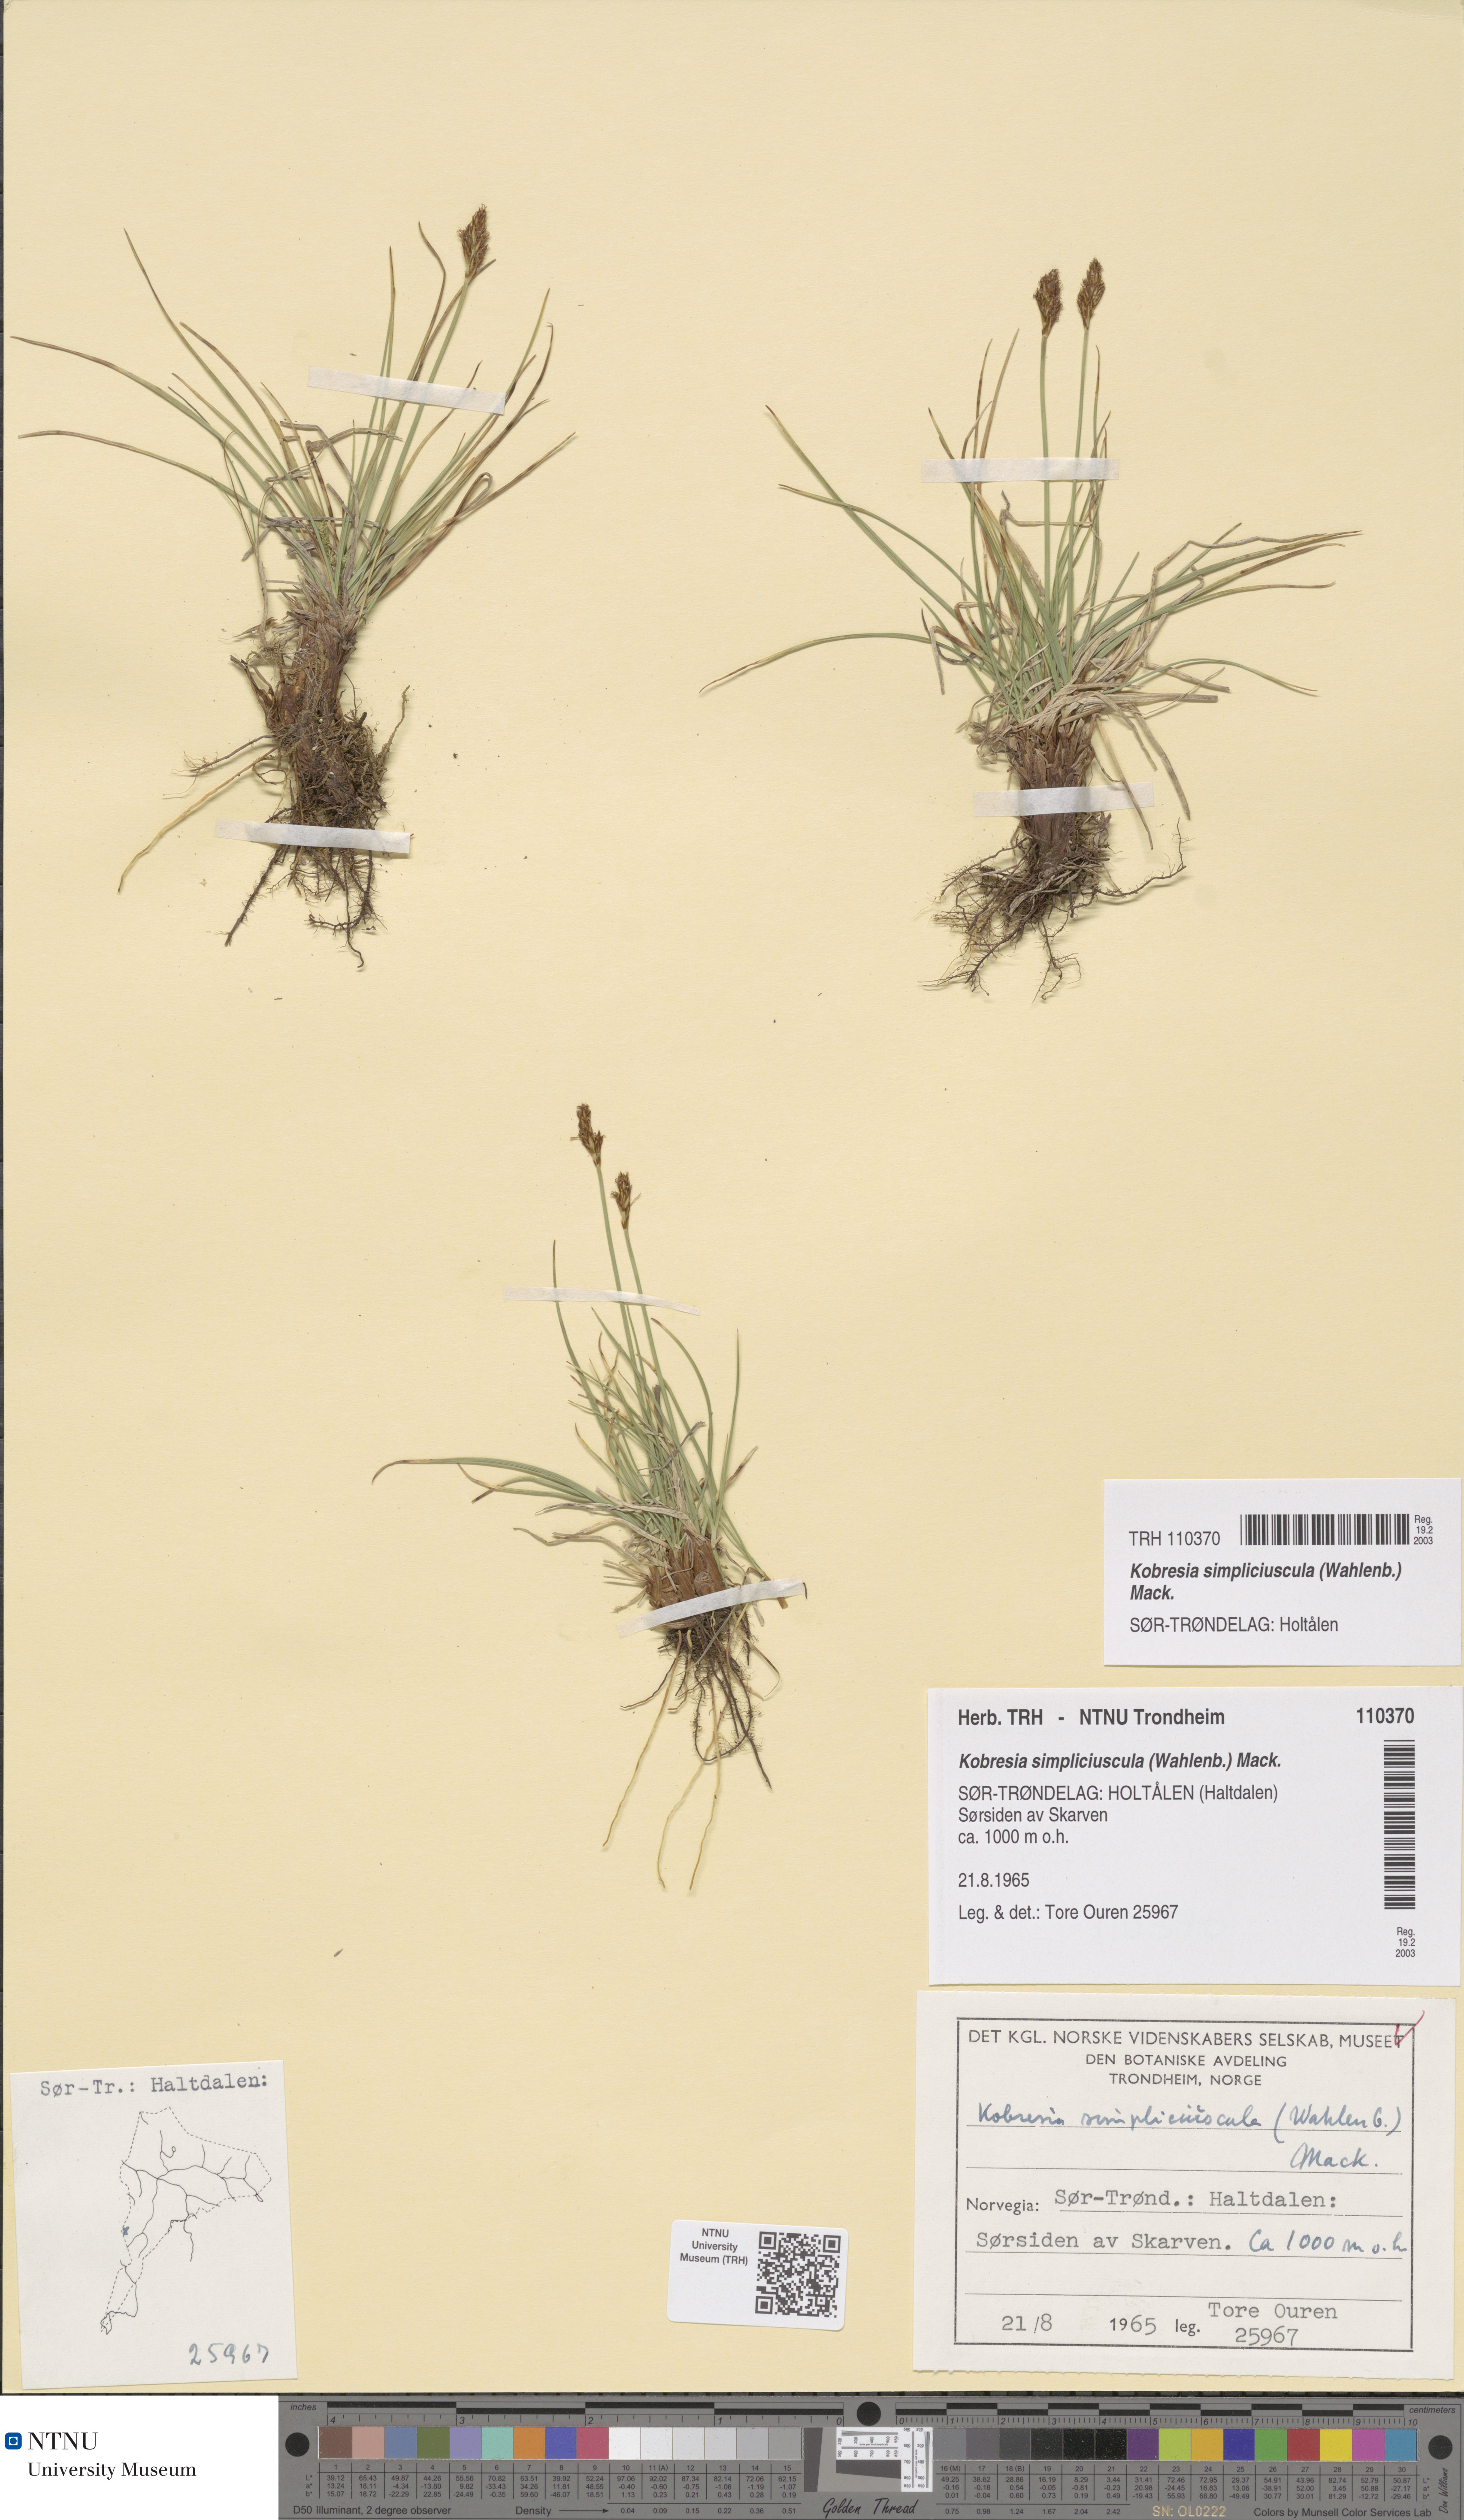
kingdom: Plantae
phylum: Tracheophyta
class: Liliopsida
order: Poales
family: Cyperaceae
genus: Carex
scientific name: Carex simpliciuscula
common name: Simple bog sedge
